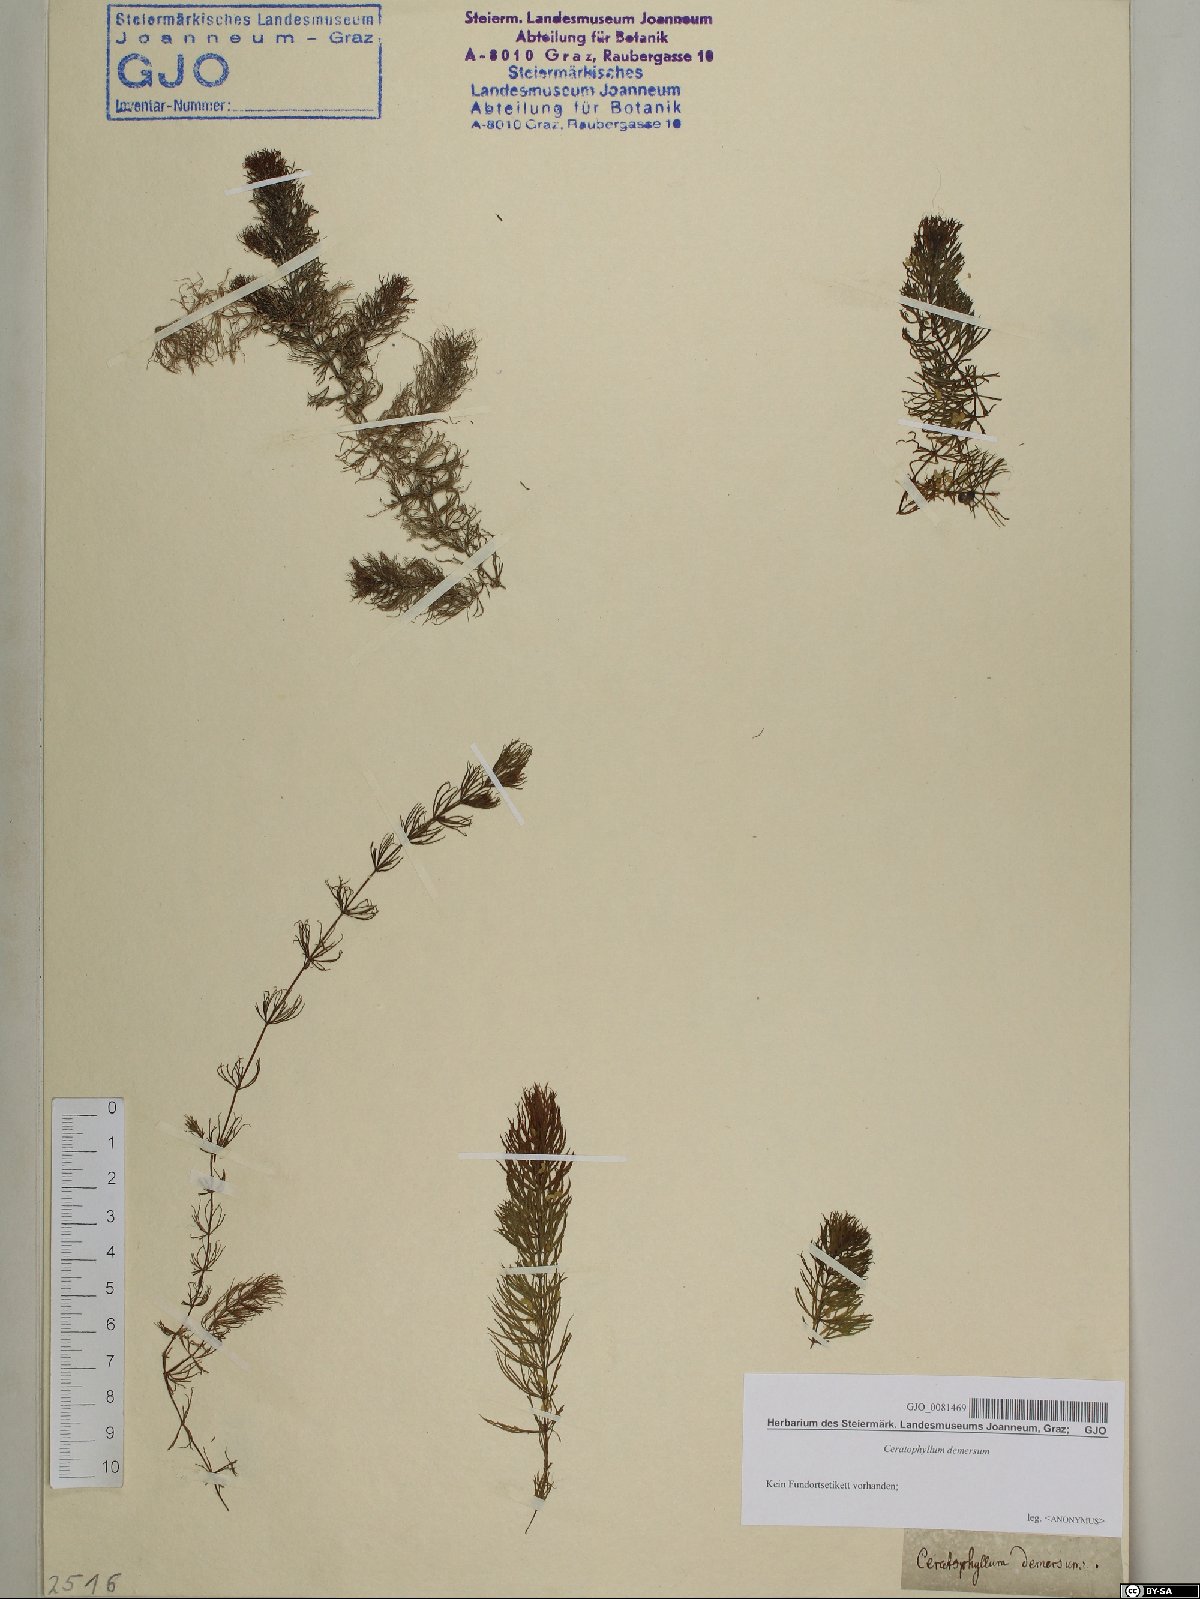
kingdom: Plantae
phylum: Tracheophyta
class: Magnoliopsida
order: Ceratophyllales
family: Ceratophyllaceae
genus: Ceratophyllum
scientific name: Ceratophyllum demersum
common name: Rigid hornwort
